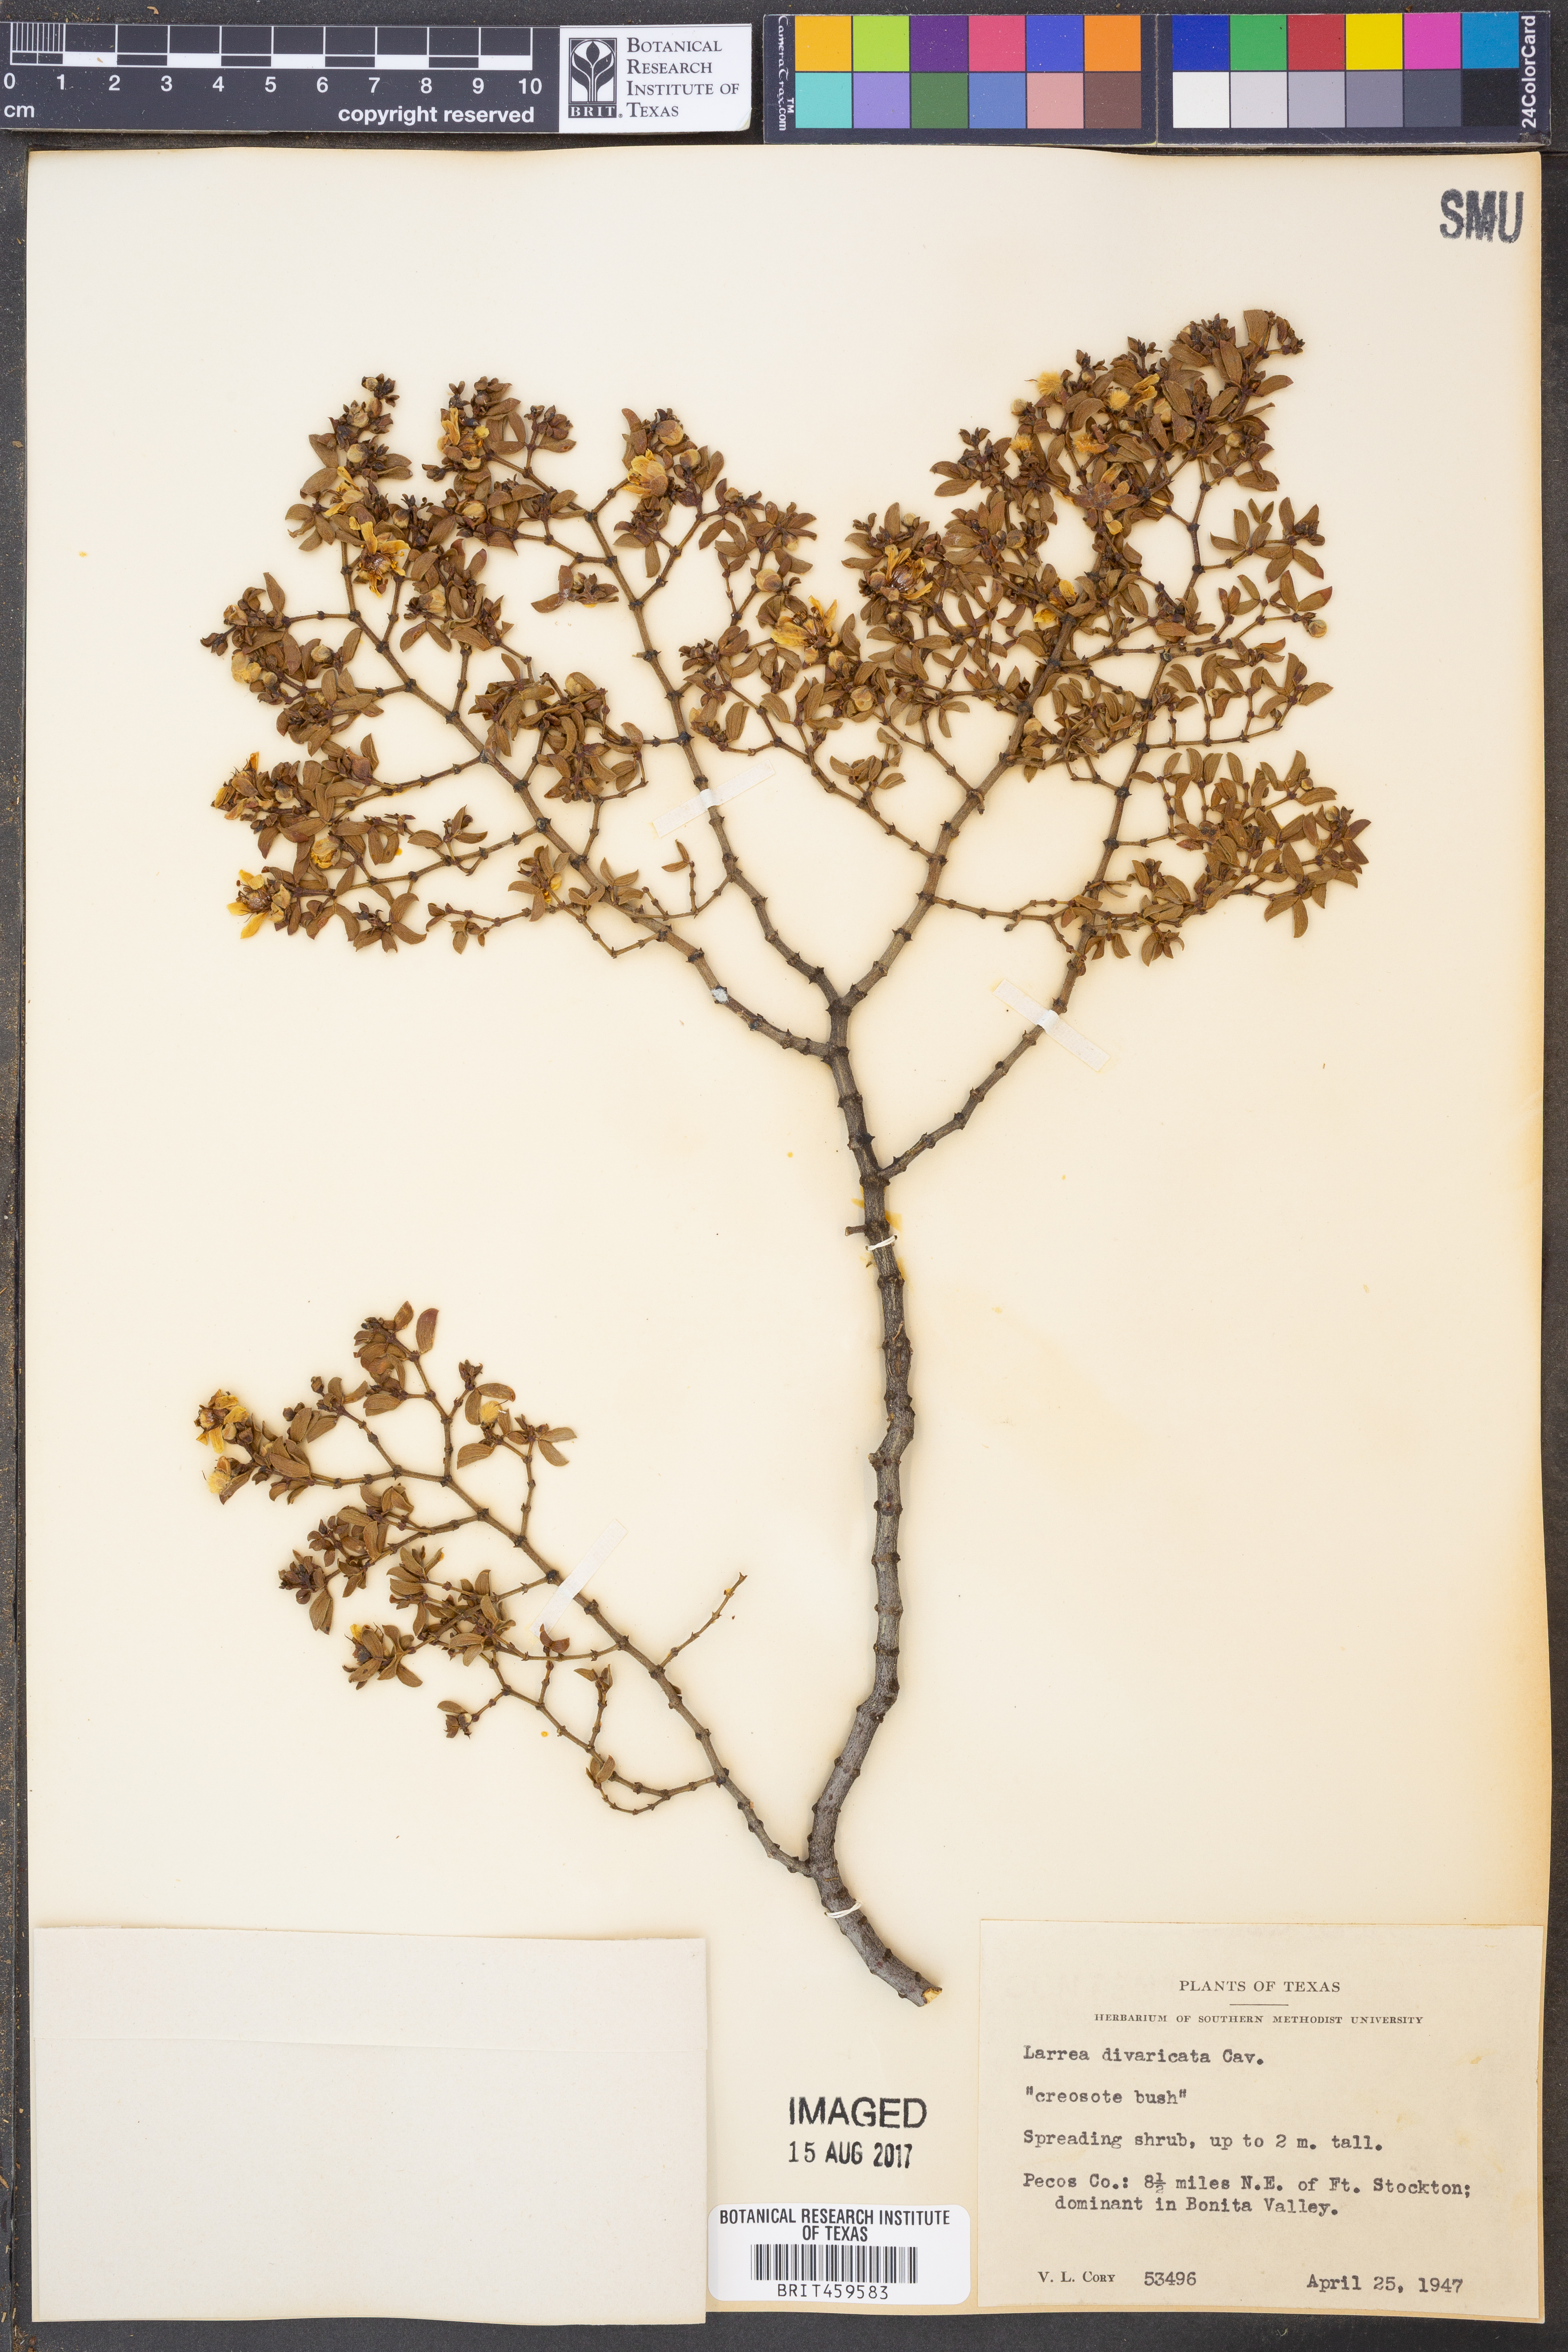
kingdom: Plantae
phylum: Tracheophyta
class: Magnoliopsida
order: Zygophyllales
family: Zygophyllaceae
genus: Larrea
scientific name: Larrea divaricata
